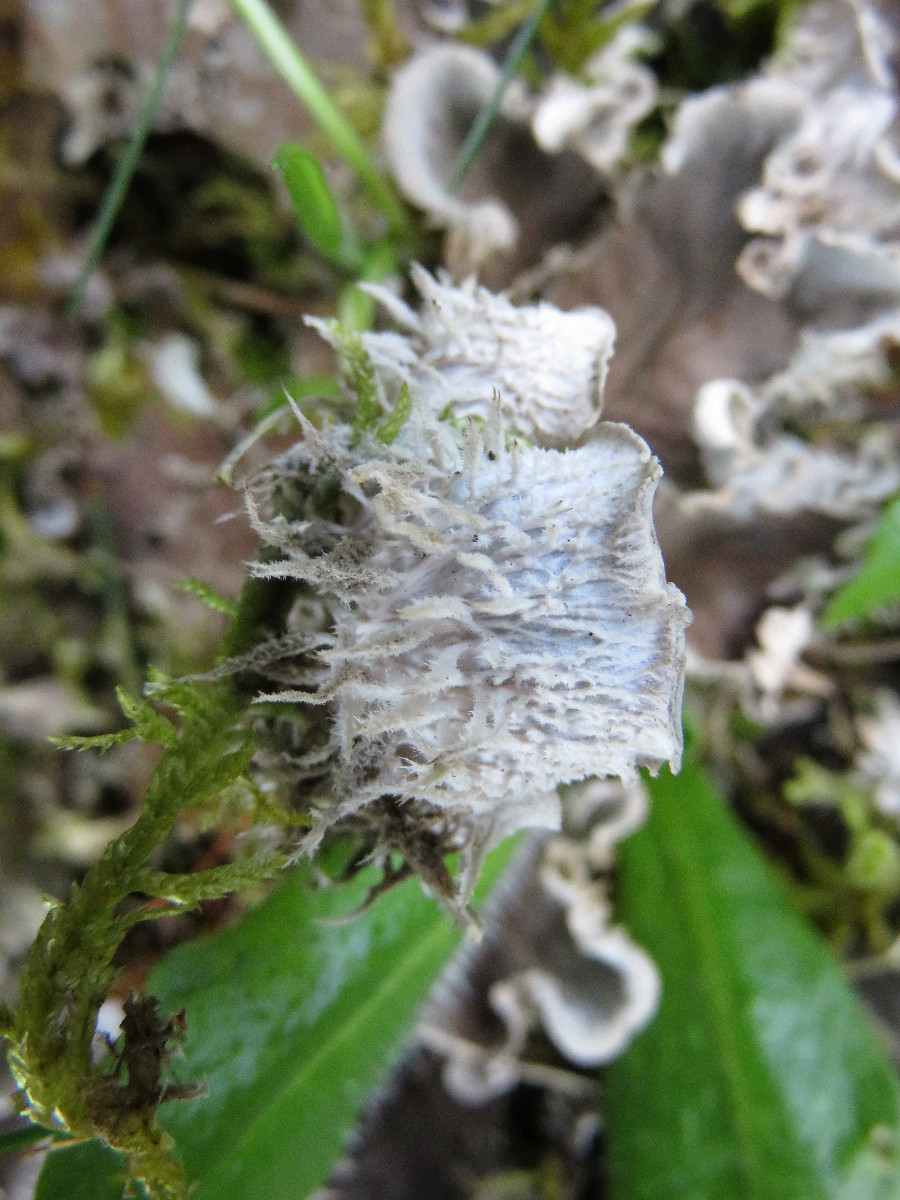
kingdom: Fungi
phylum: Ascomycota
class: Lecanoromycetes
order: Peltigerales
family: Peltigeraceae
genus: Peltigera
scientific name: Peltigera canina
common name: hunde-skjoldlav
